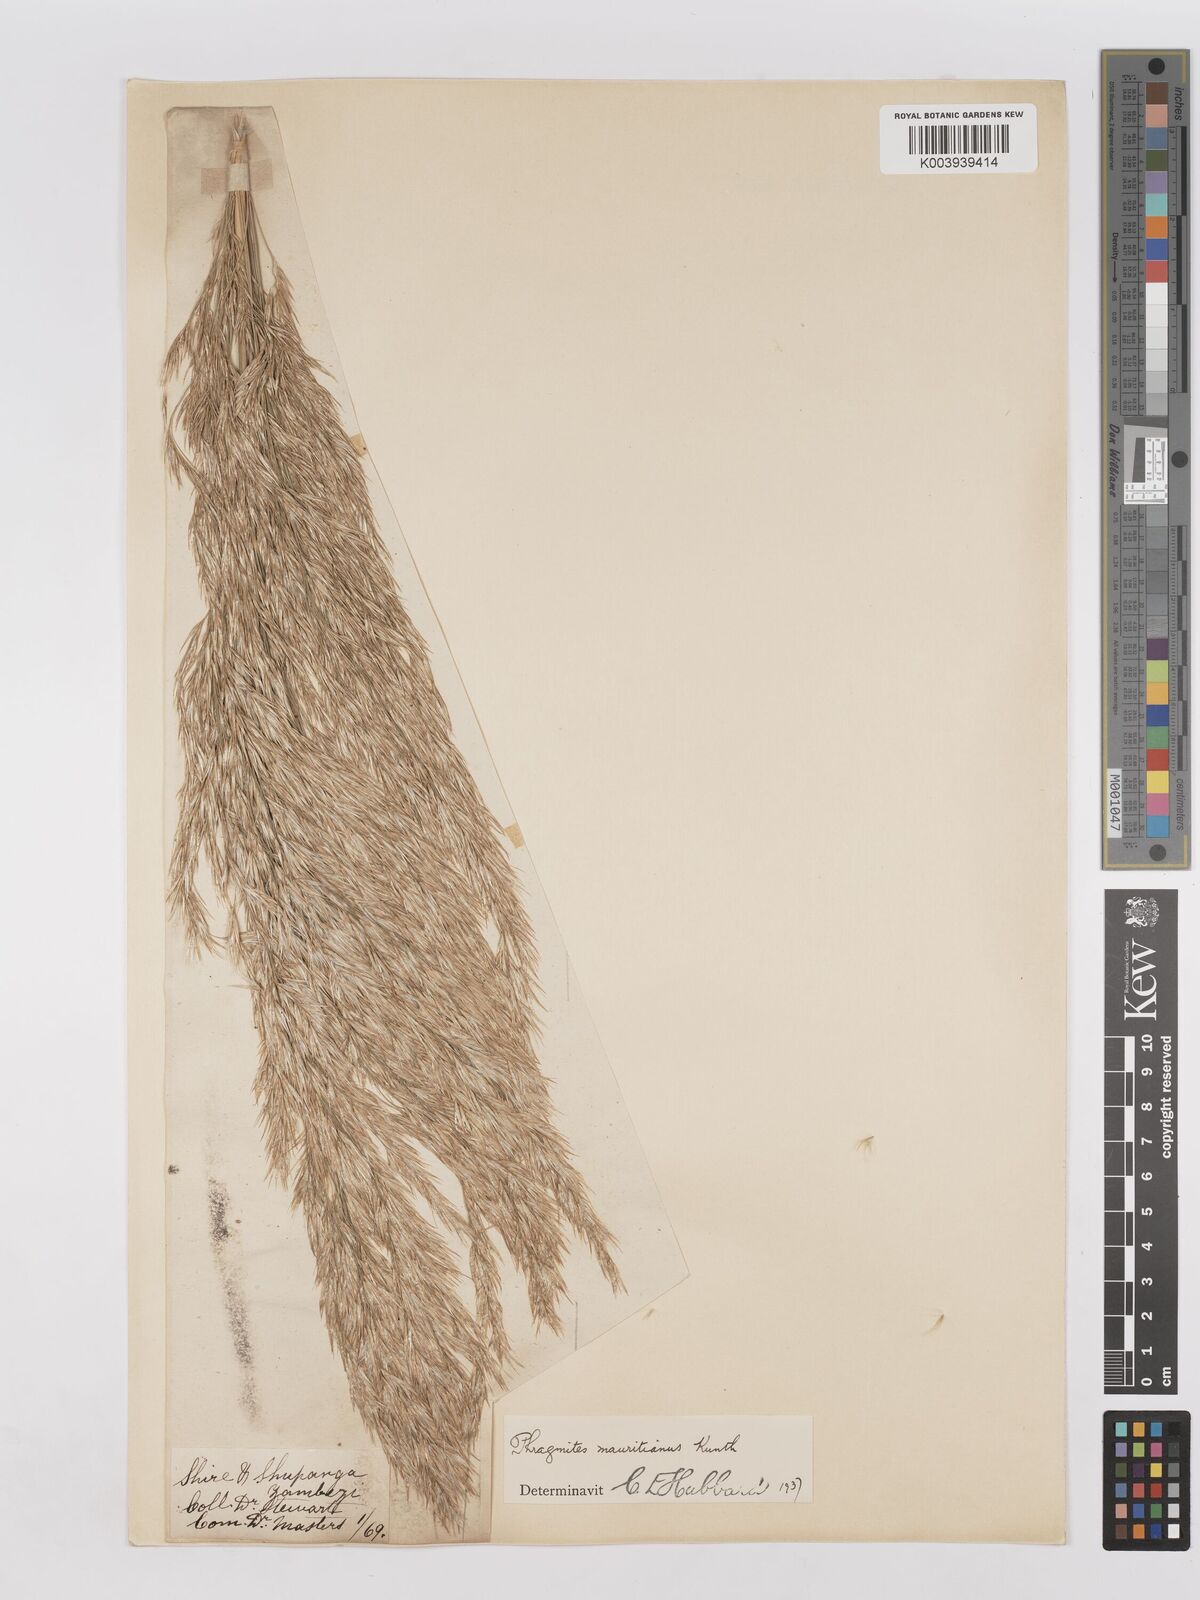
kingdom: Plantae
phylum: Tracheophyta
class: Liliopsida
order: Poales
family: Poaceae
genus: Phragmites
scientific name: Phragmites mauritianus
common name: Reed grass
